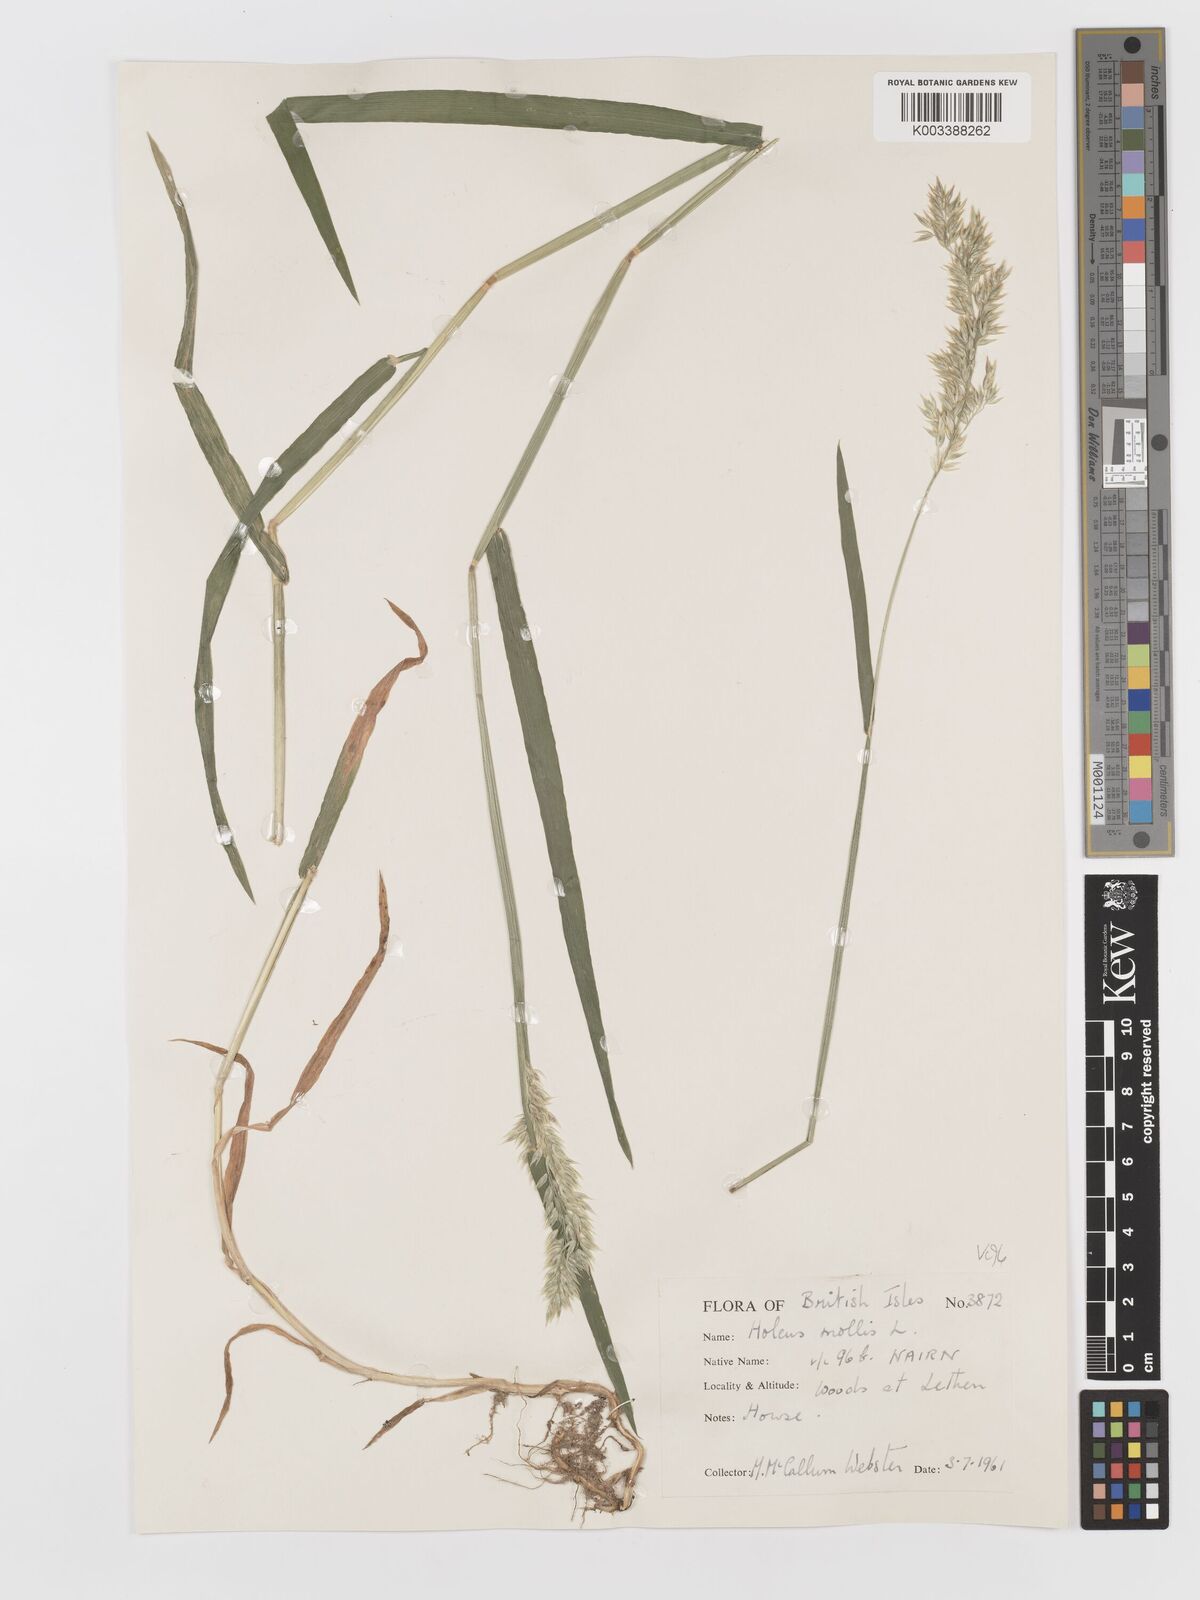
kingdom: Plantae
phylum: Tracheophyta
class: Liliopsida
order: Poales
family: Poaceae
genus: Holcus
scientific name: Holcus mollis
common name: Creeping velvetgrass
